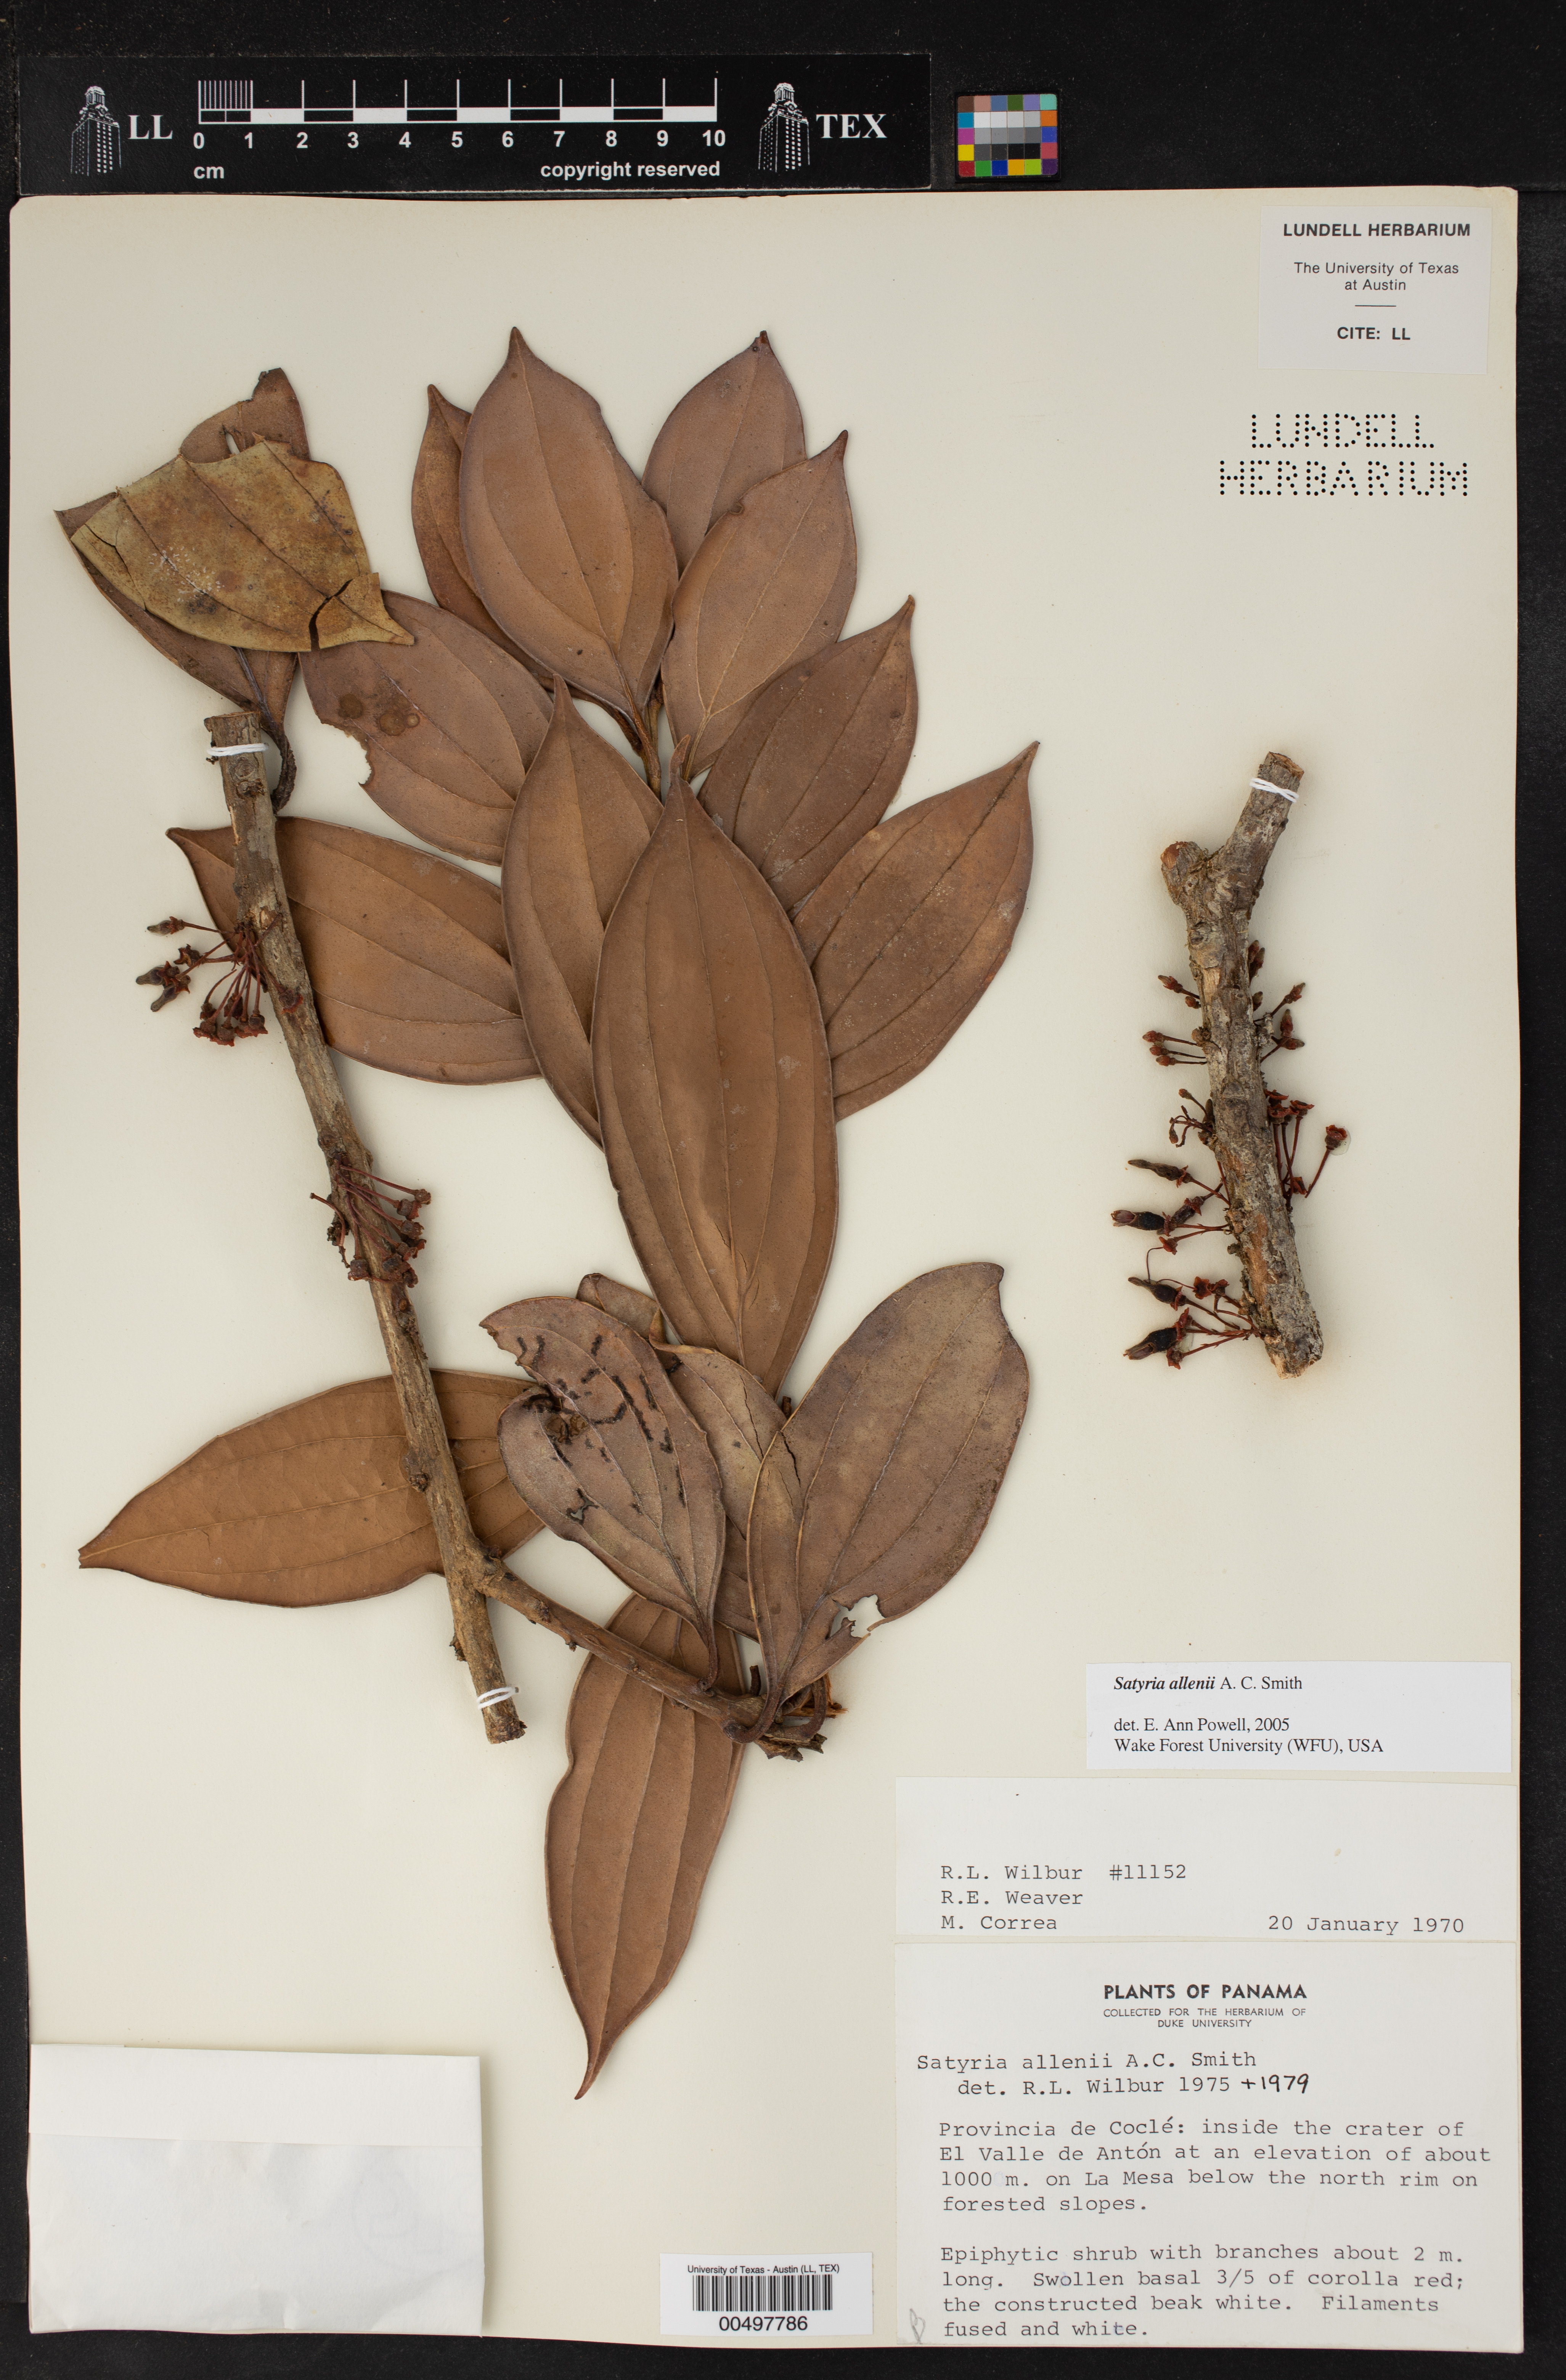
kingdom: Plantae
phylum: Tracheophyta
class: Magnoliopsida
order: Ericales
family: Ericaceae
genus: Satyria
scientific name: Satyria allenii
